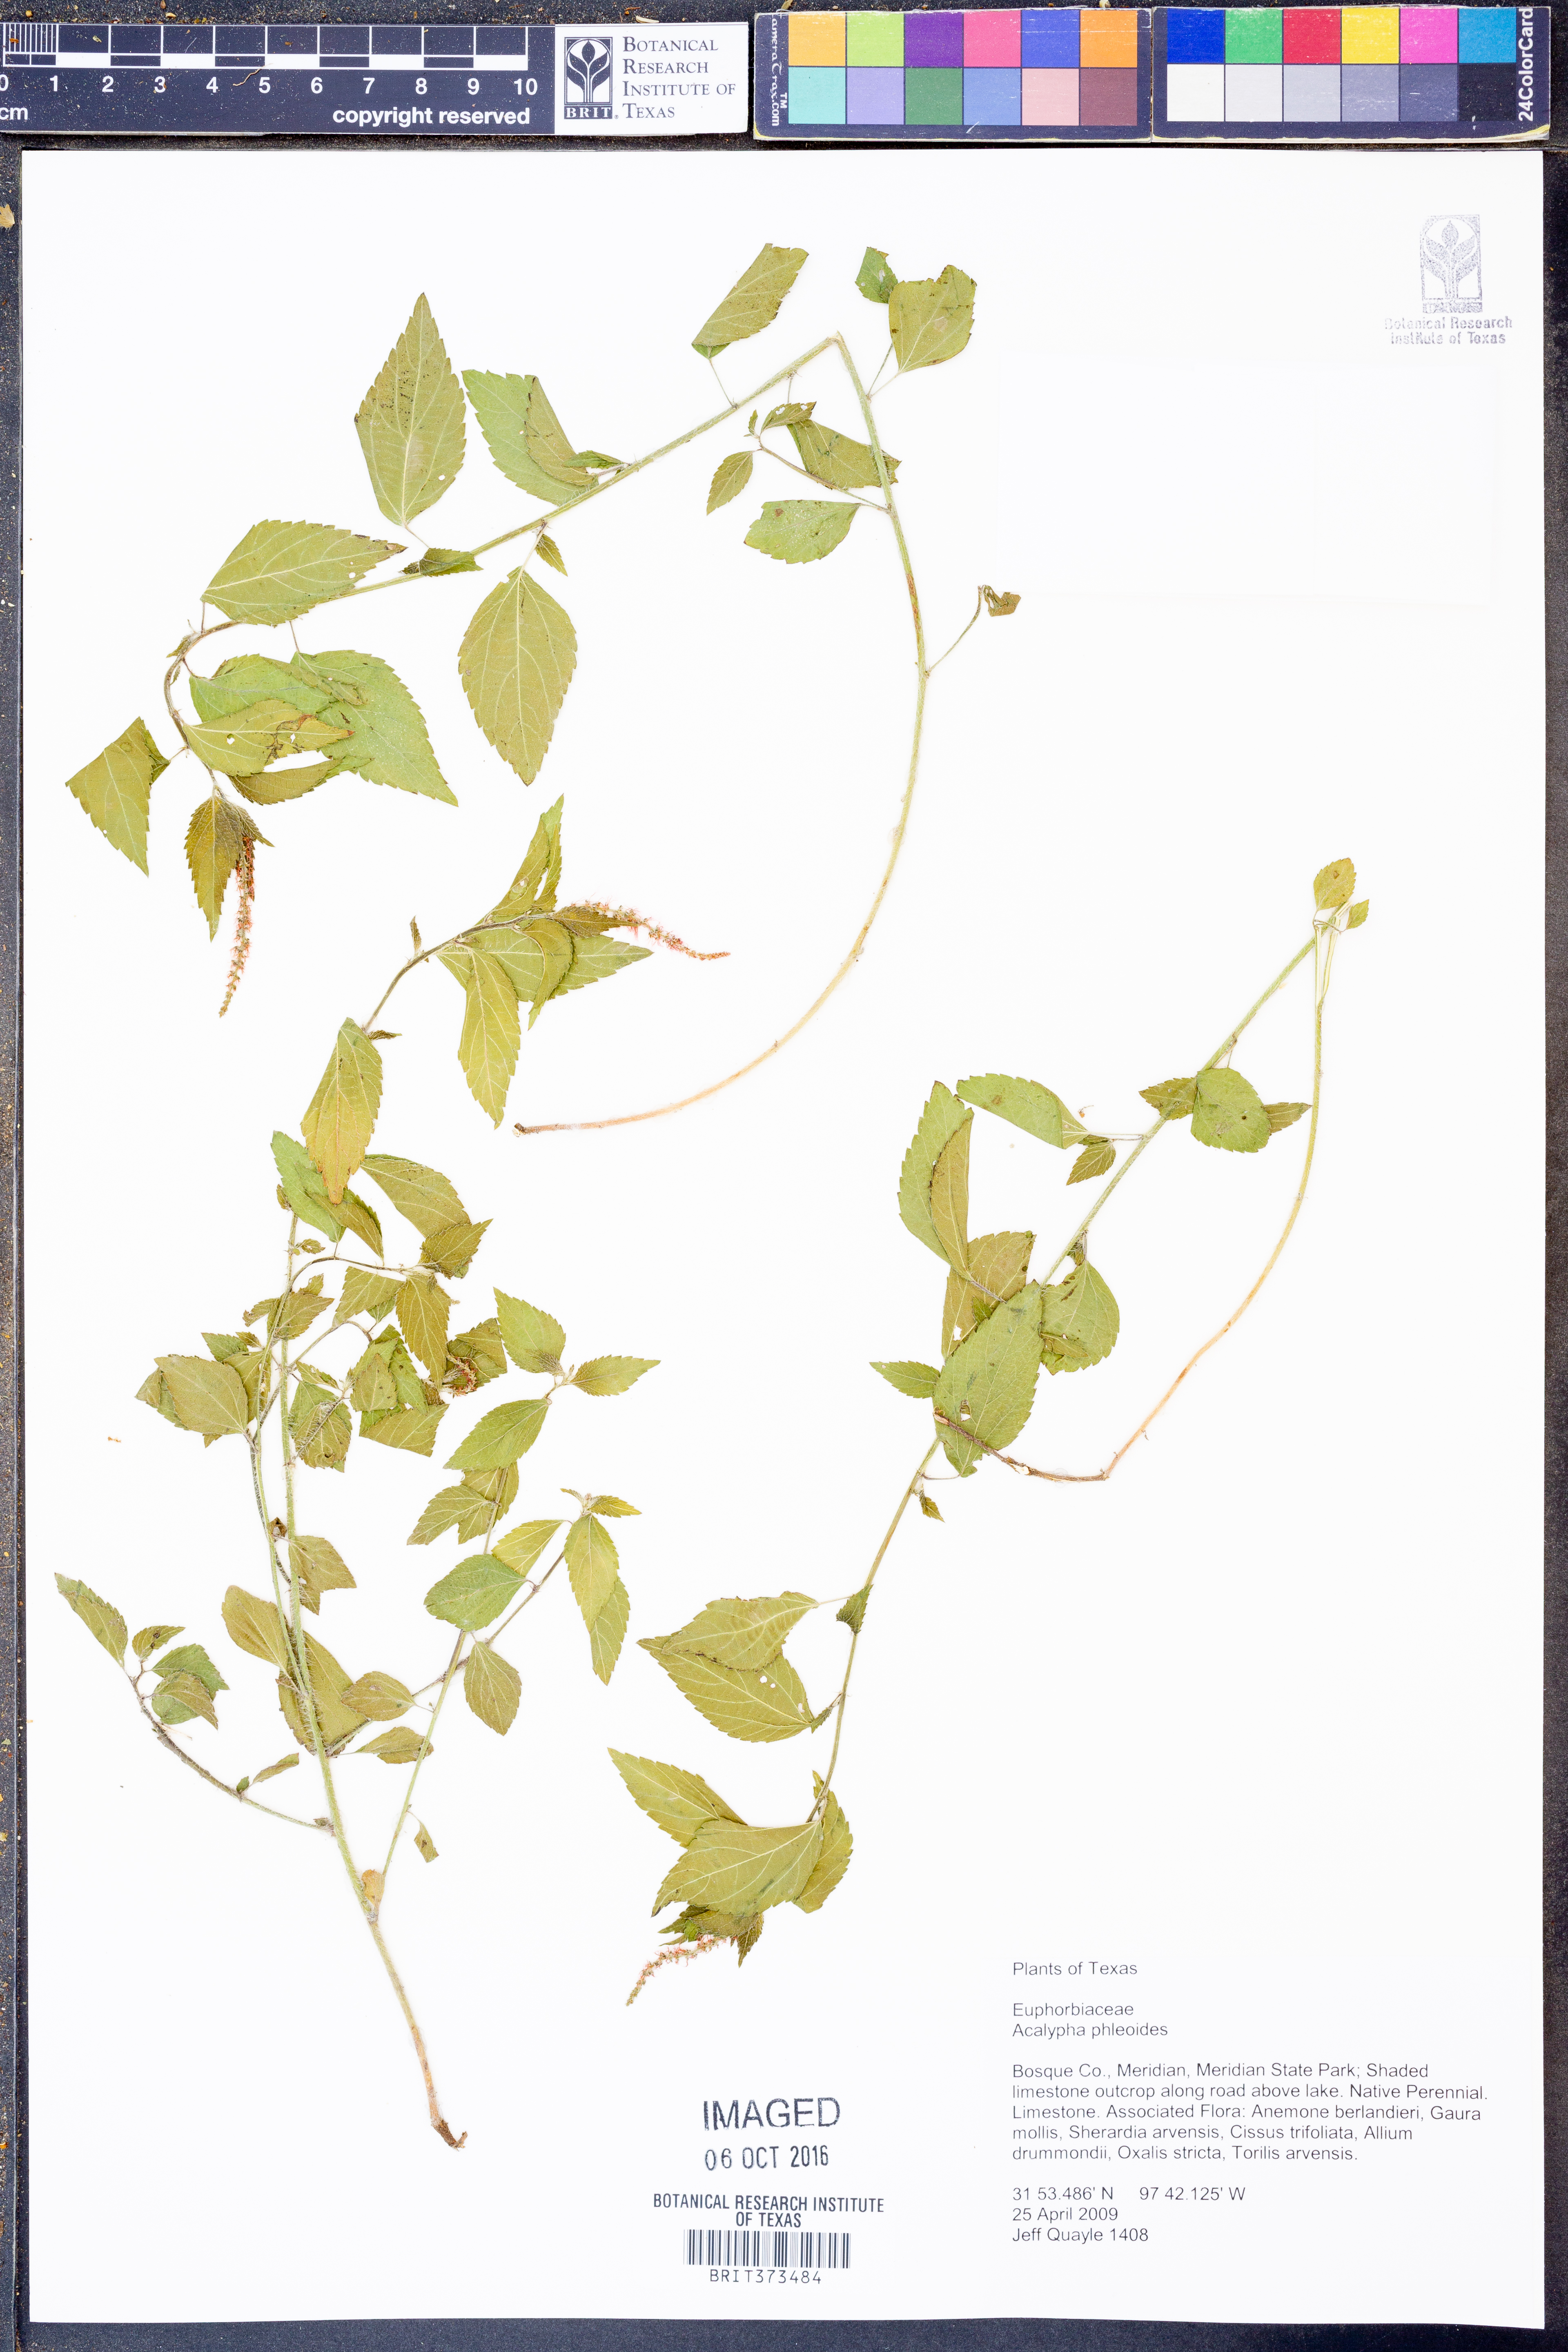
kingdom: Plantae
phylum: Tracheophyta
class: Magnoliopsida
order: Malpighiales
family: Euphorbiaceae
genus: Acalypha
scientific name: Acalypha phleoides
